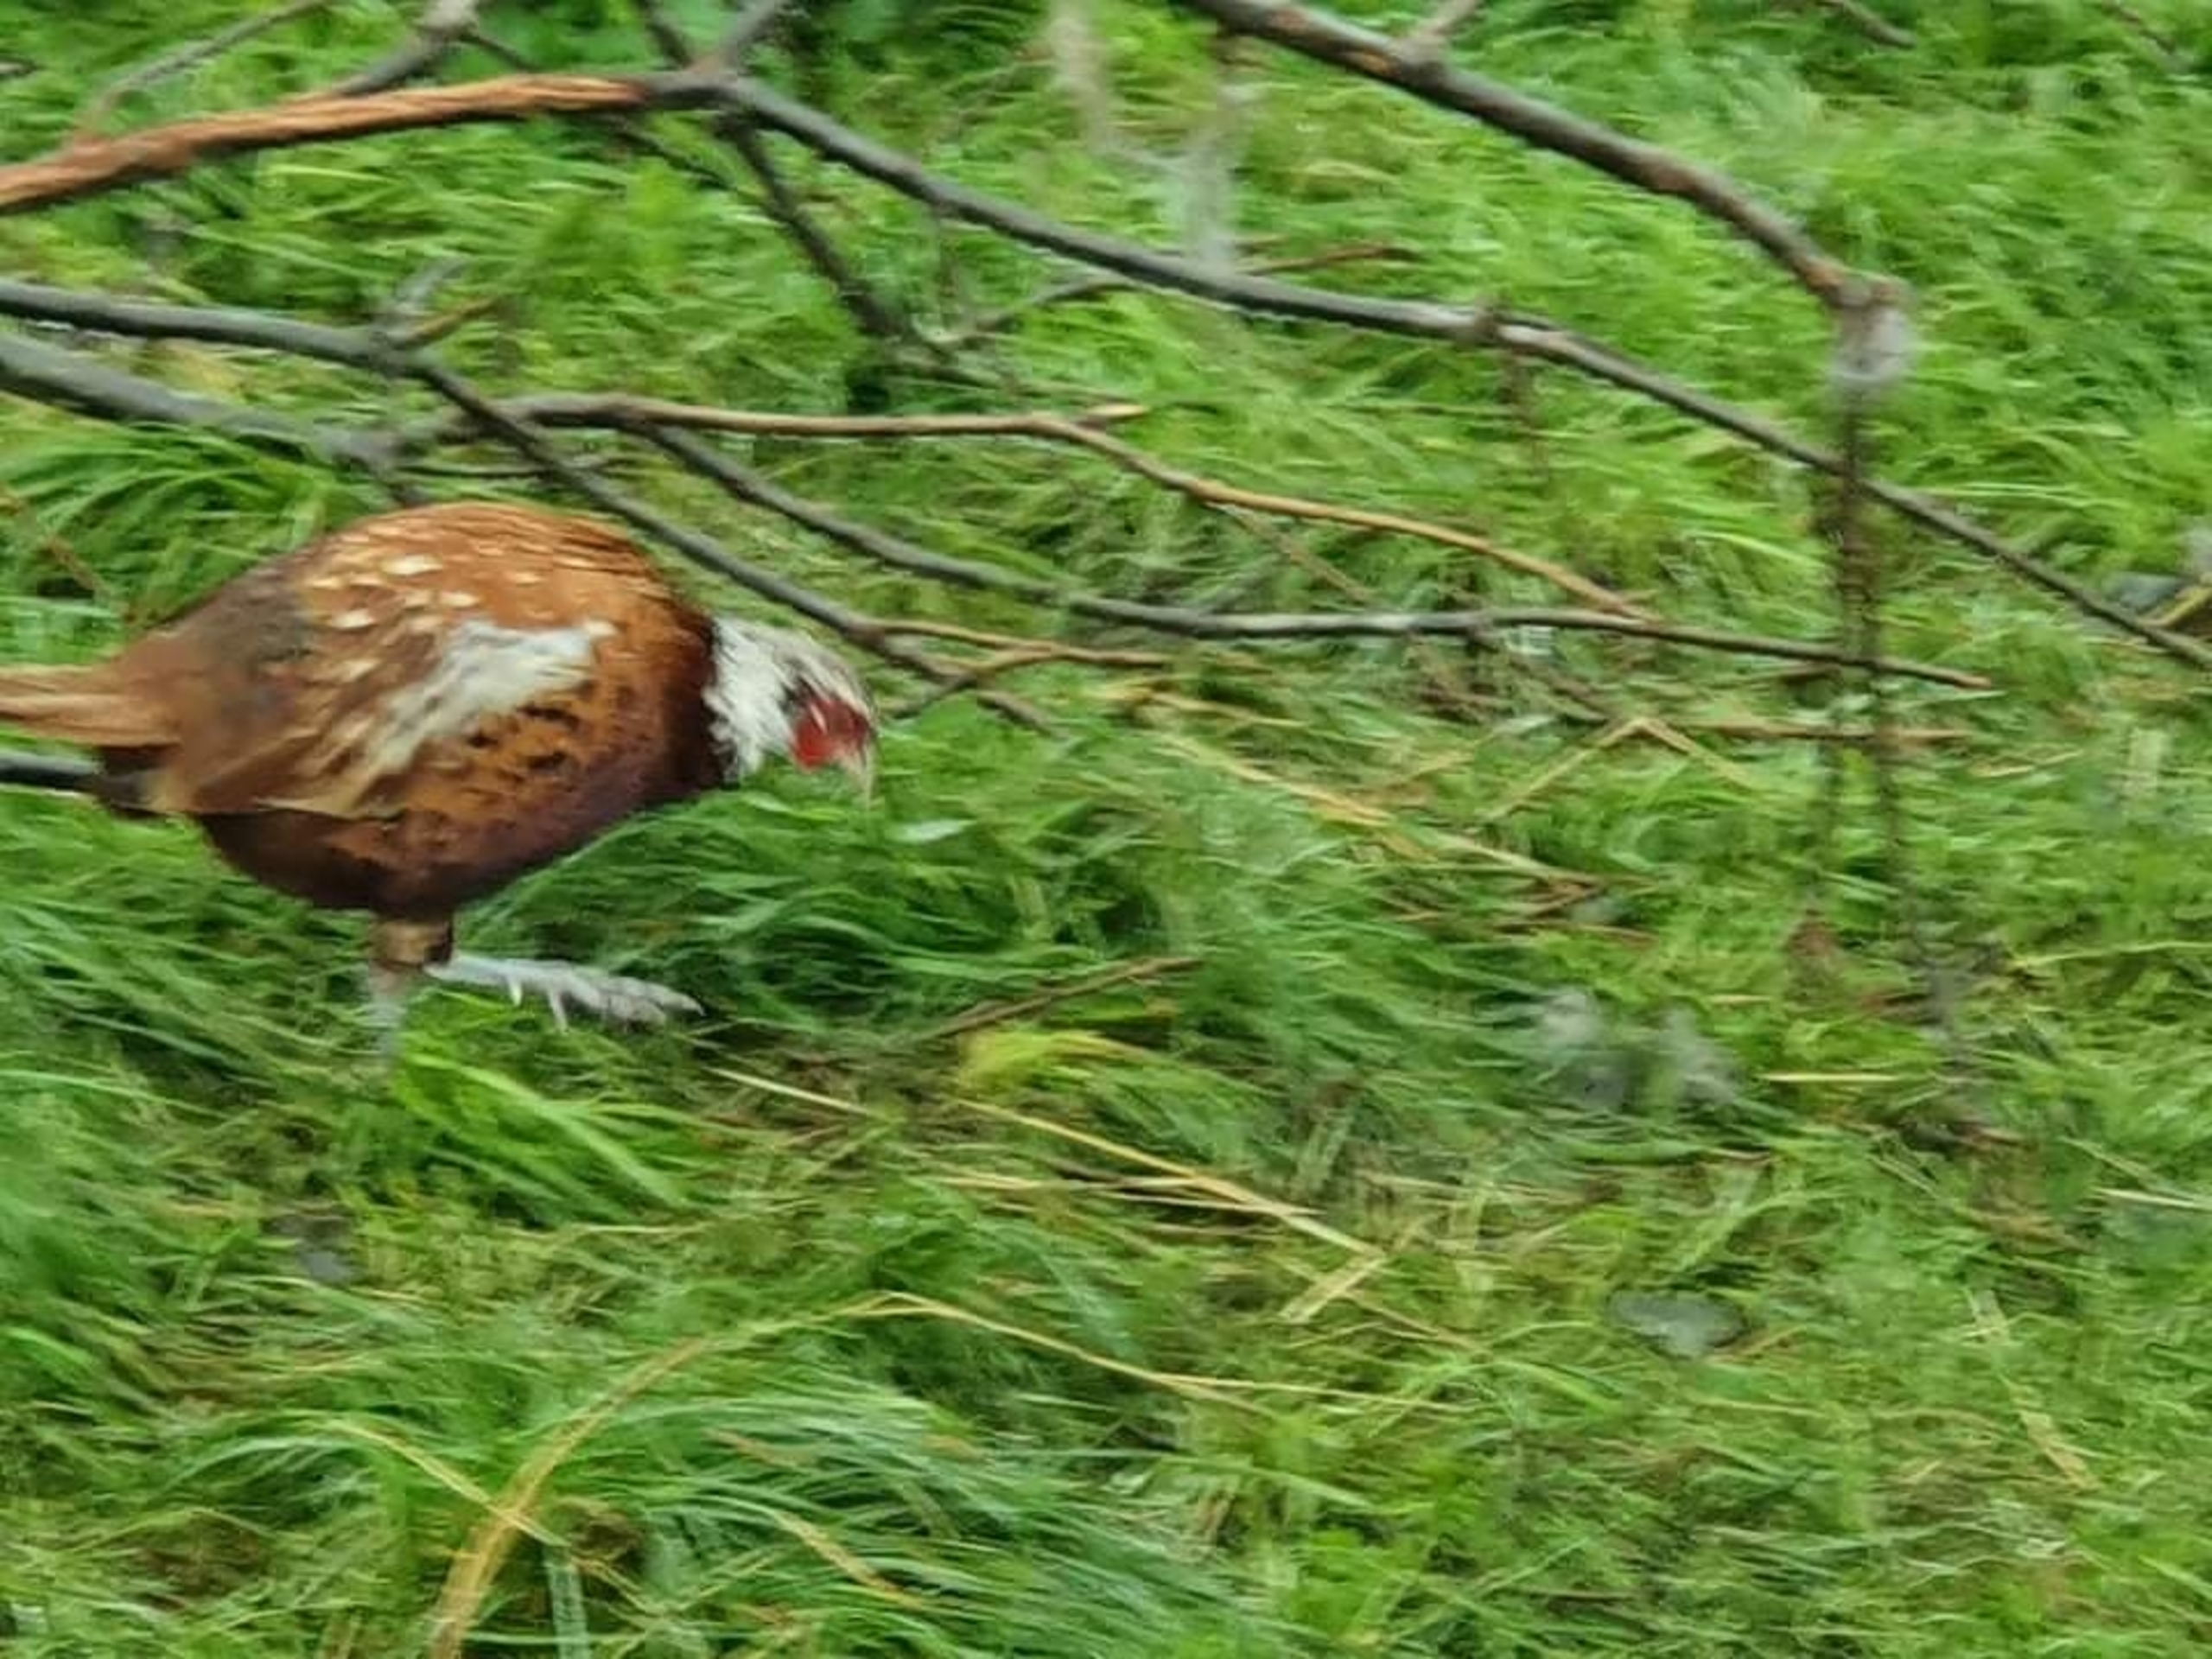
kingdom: Animalia
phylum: Chordata
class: Aves
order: Galliformes
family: Phasianidae
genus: Phasianus
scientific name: Phasianus colchicus
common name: Fasan
